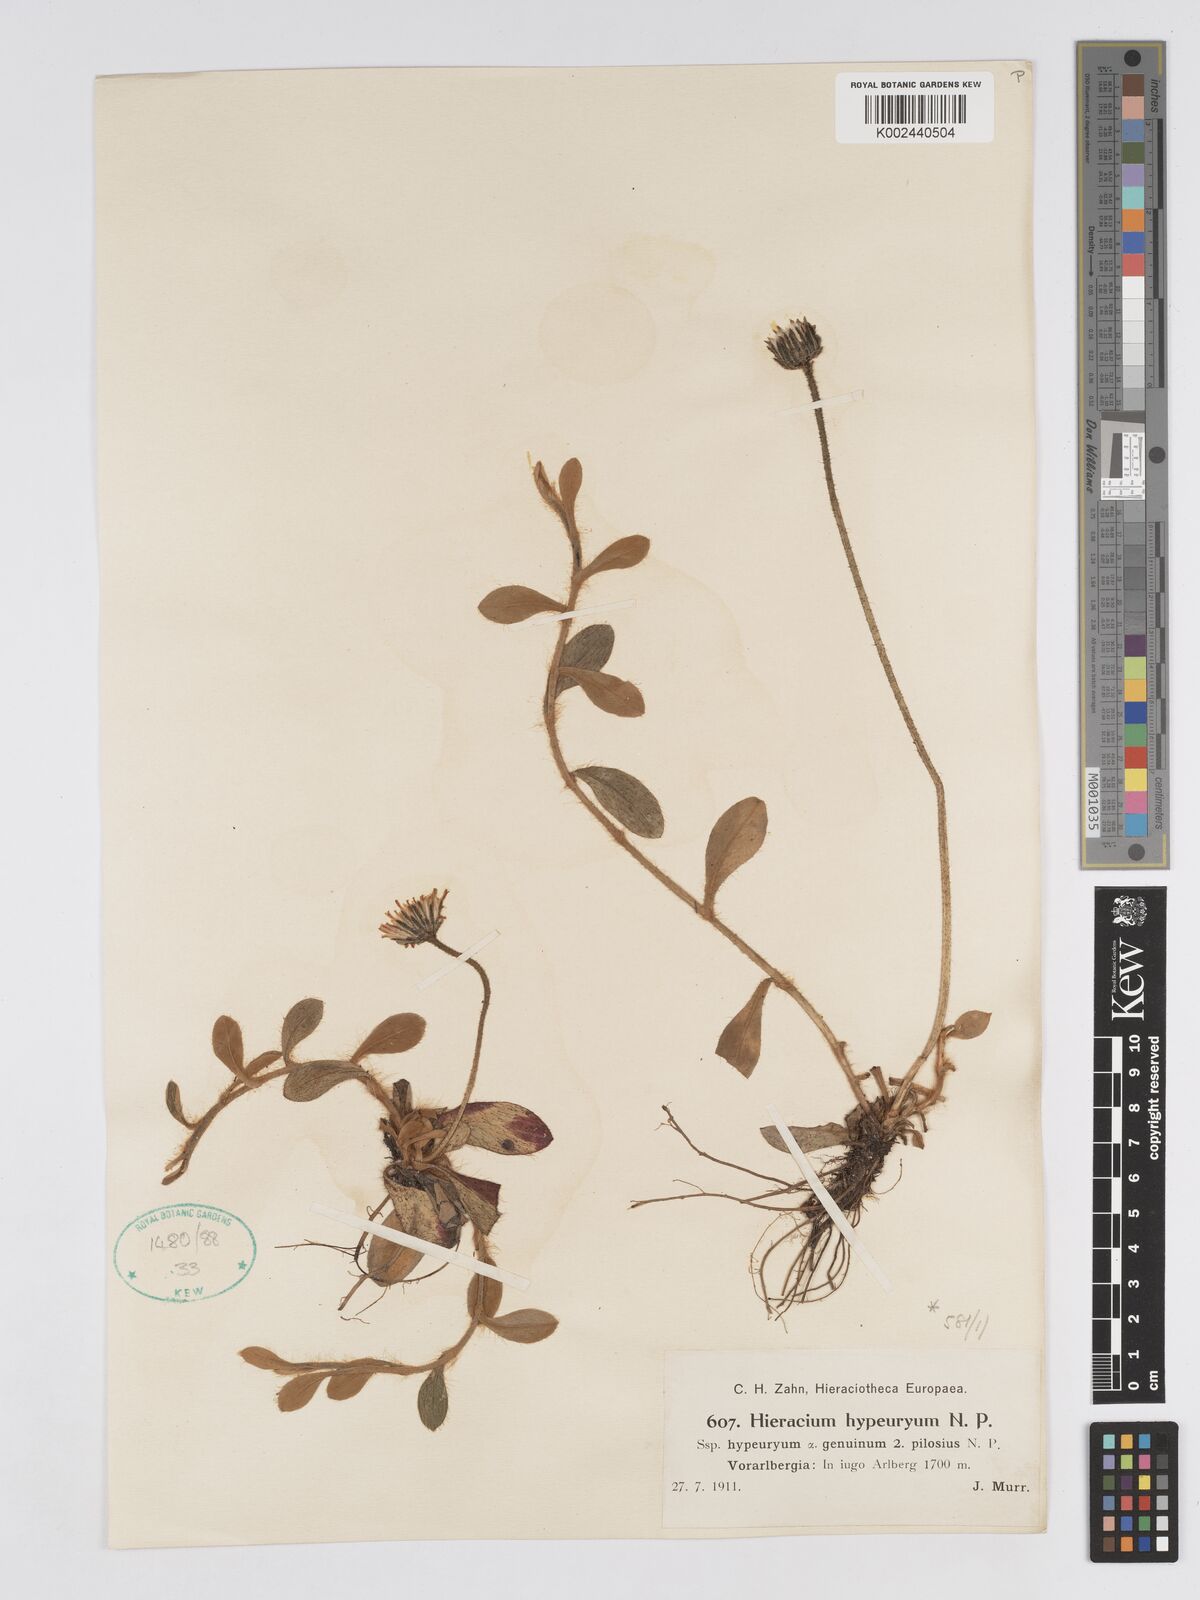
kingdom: Plantae
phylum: Tracheophyta
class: Magnoliopsida
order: Asterales
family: Asteraceae
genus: Pilosella
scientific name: Pilosella hypeurya
